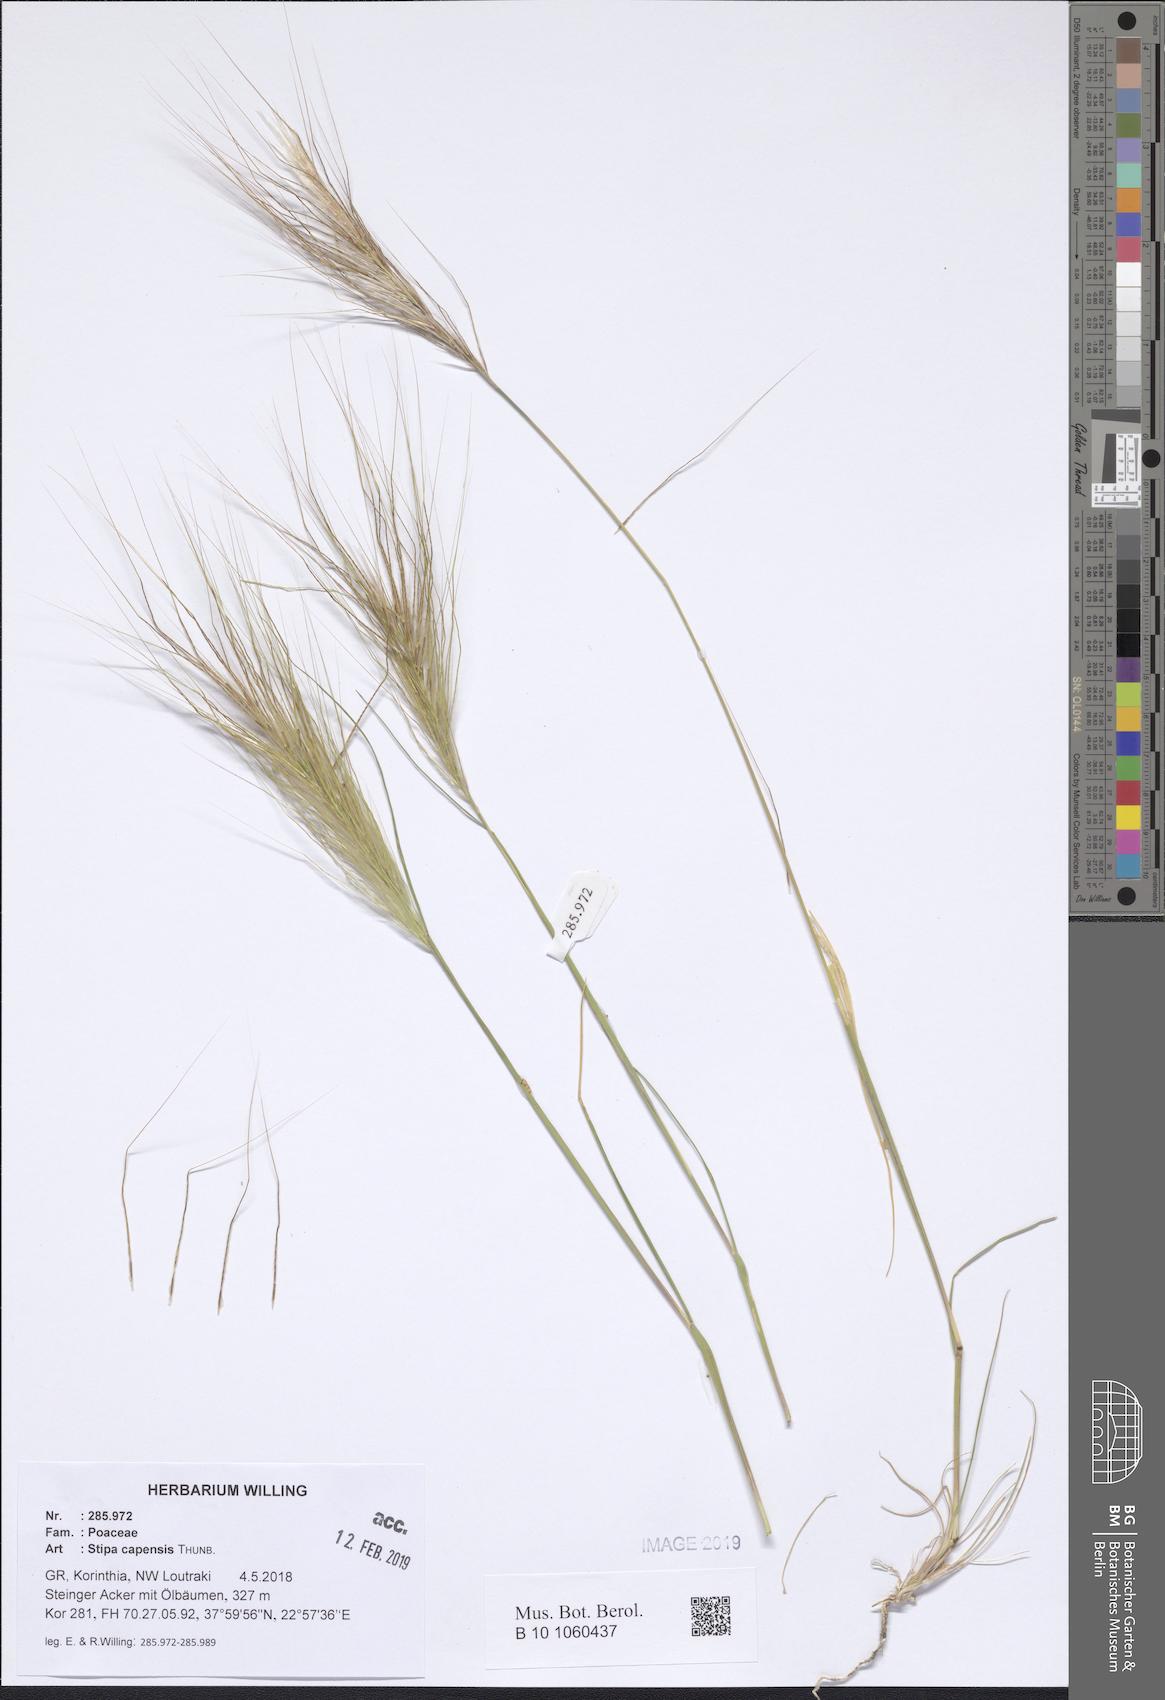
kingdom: Plantae
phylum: Tracheophyta
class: Liliopsida
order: Poales
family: Poaceae
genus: Stipellula
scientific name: Stipellula capensis
